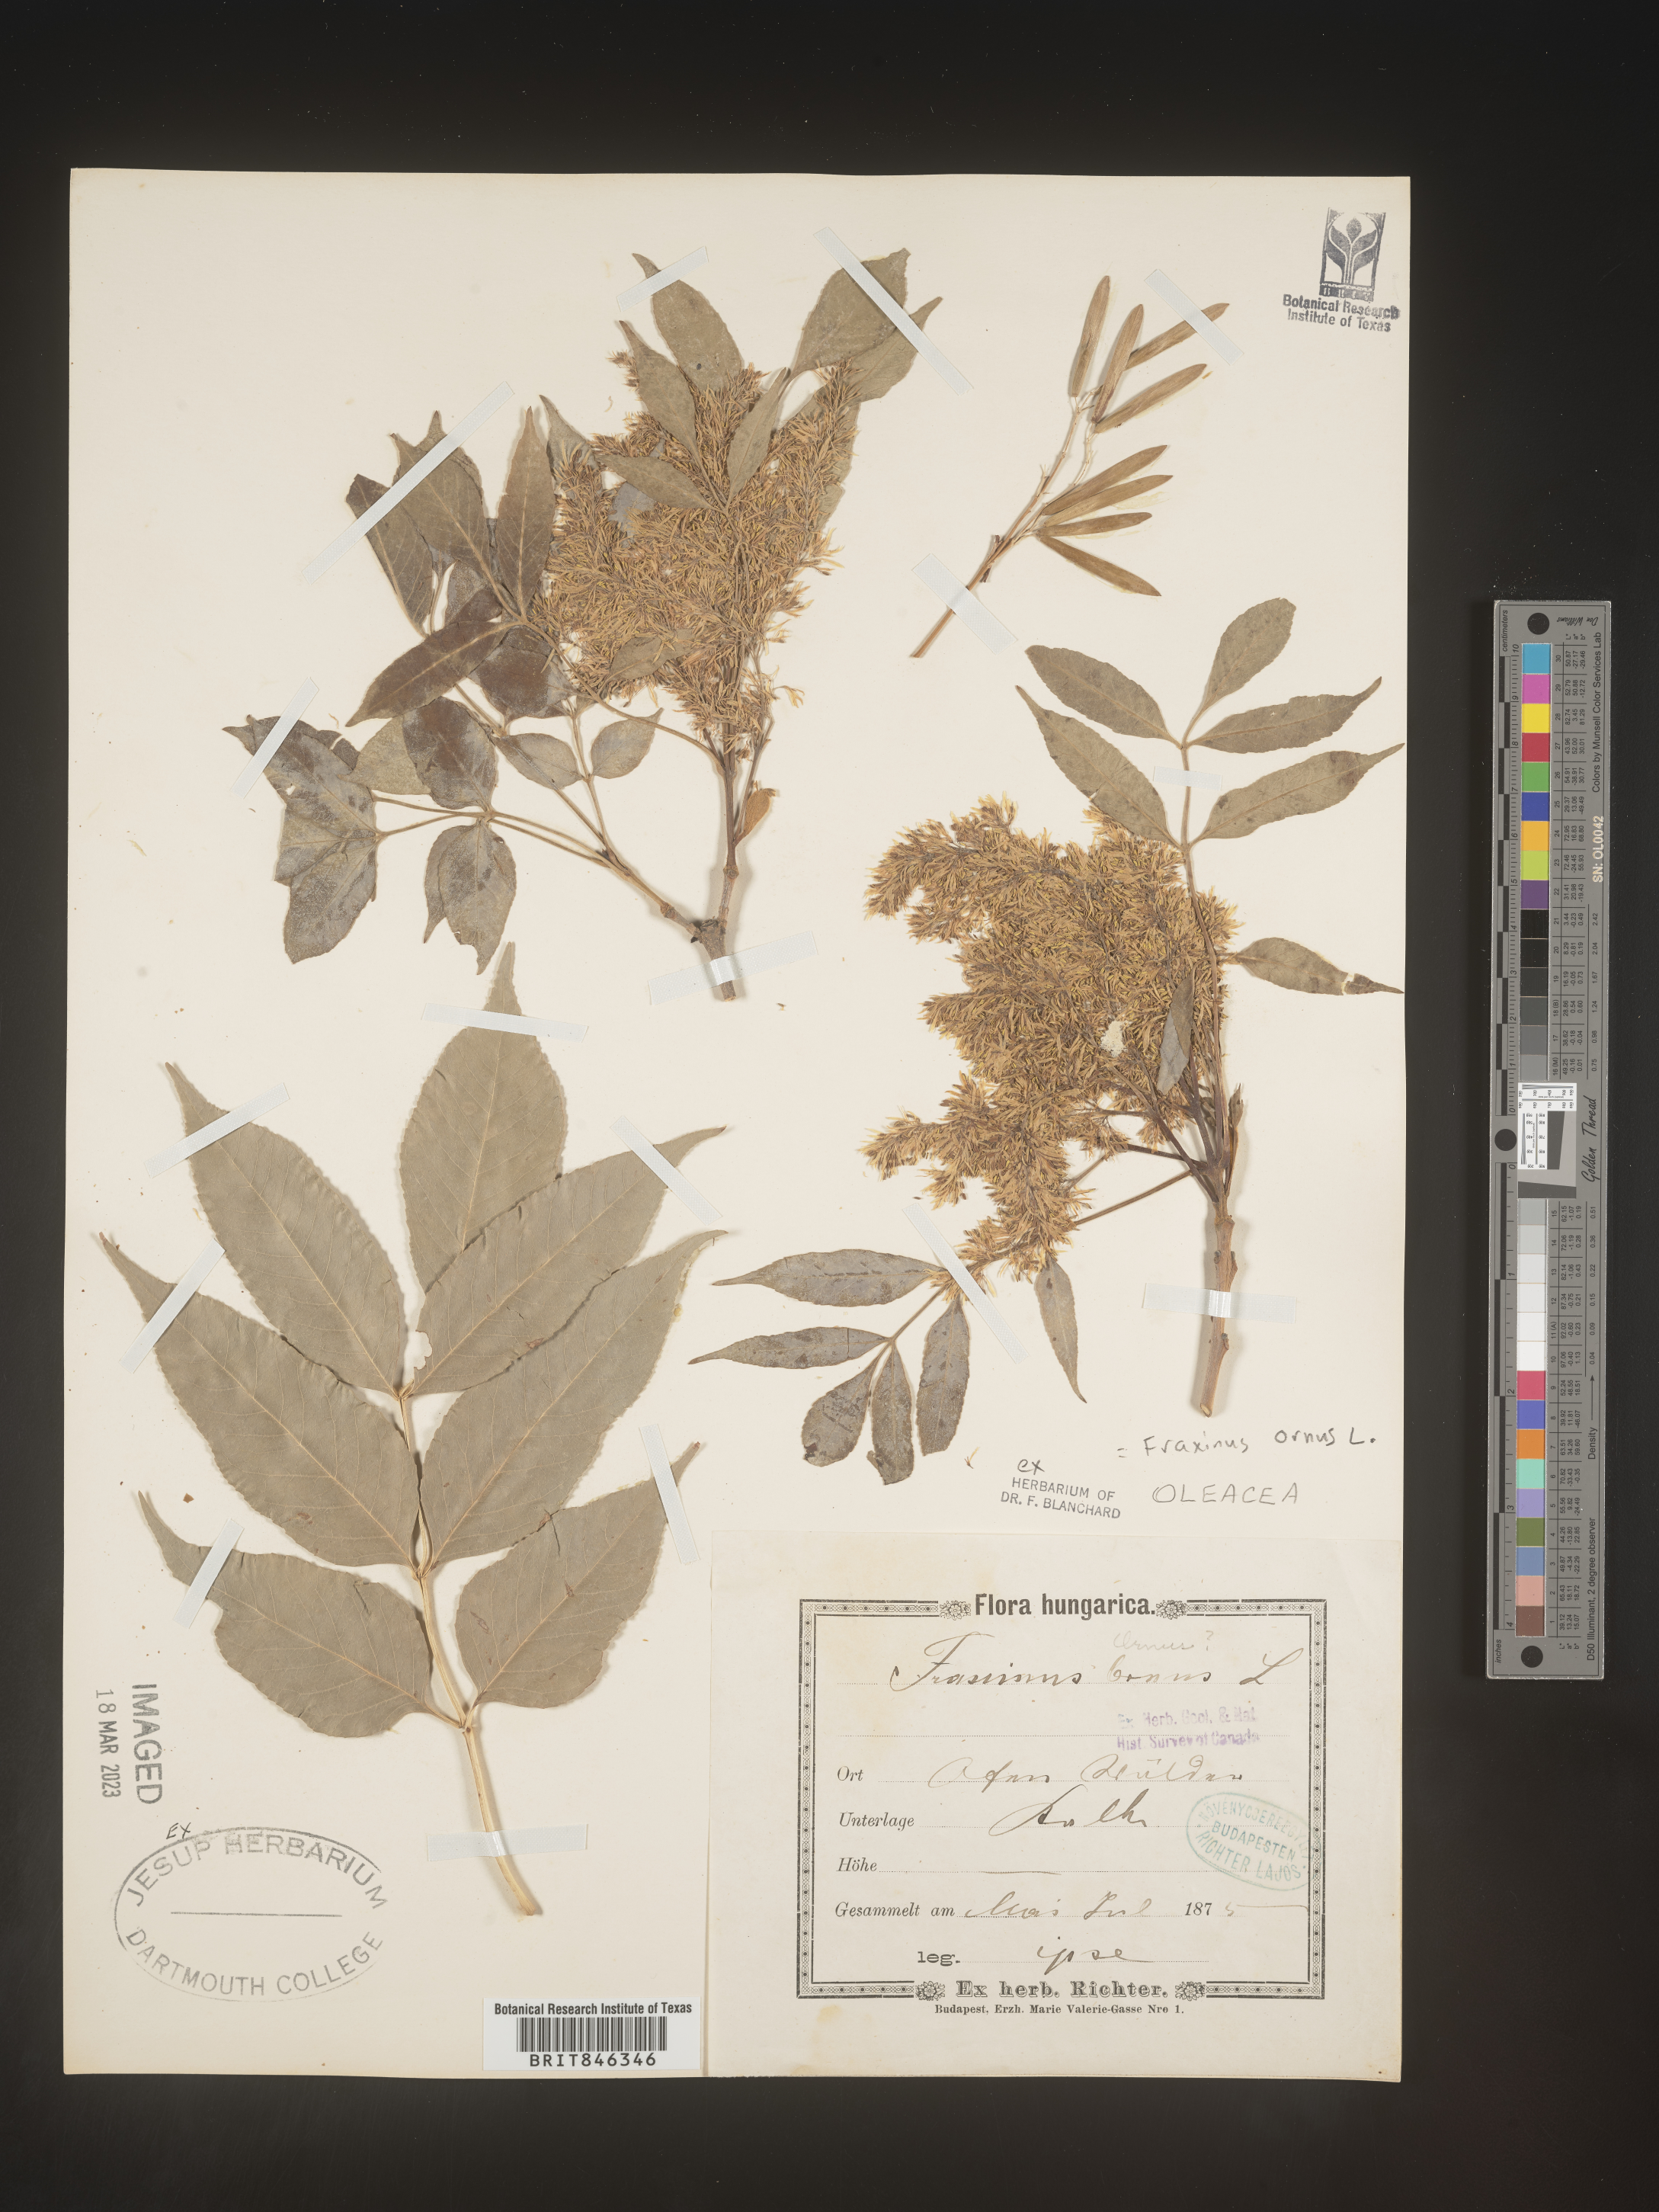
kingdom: Plantae
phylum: Tracheophyta
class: Magnoliopsida
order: Lamiales
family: Oleaceae
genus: Fraxinus
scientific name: Fraxinus
